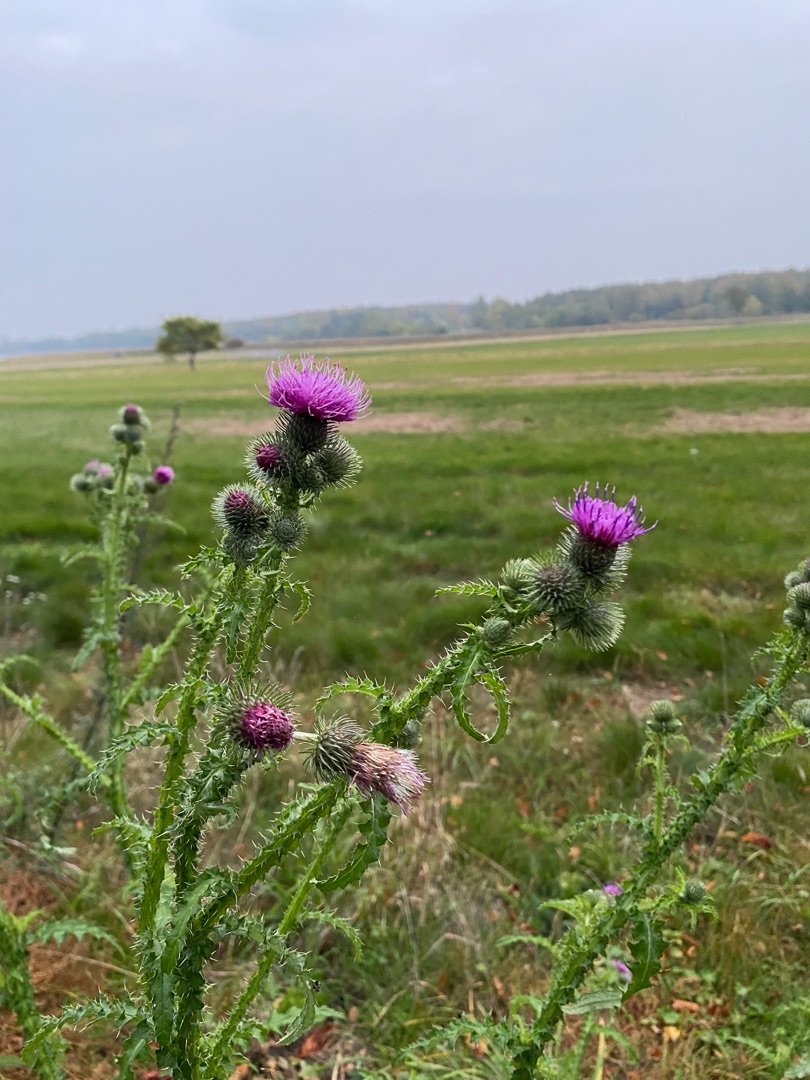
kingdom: Plantae
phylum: Tracheophyta
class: Magnoliopsida
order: Asterales
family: Asteraceae
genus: Carduus
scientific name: Carduus crispus
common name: Kruset tidsel
